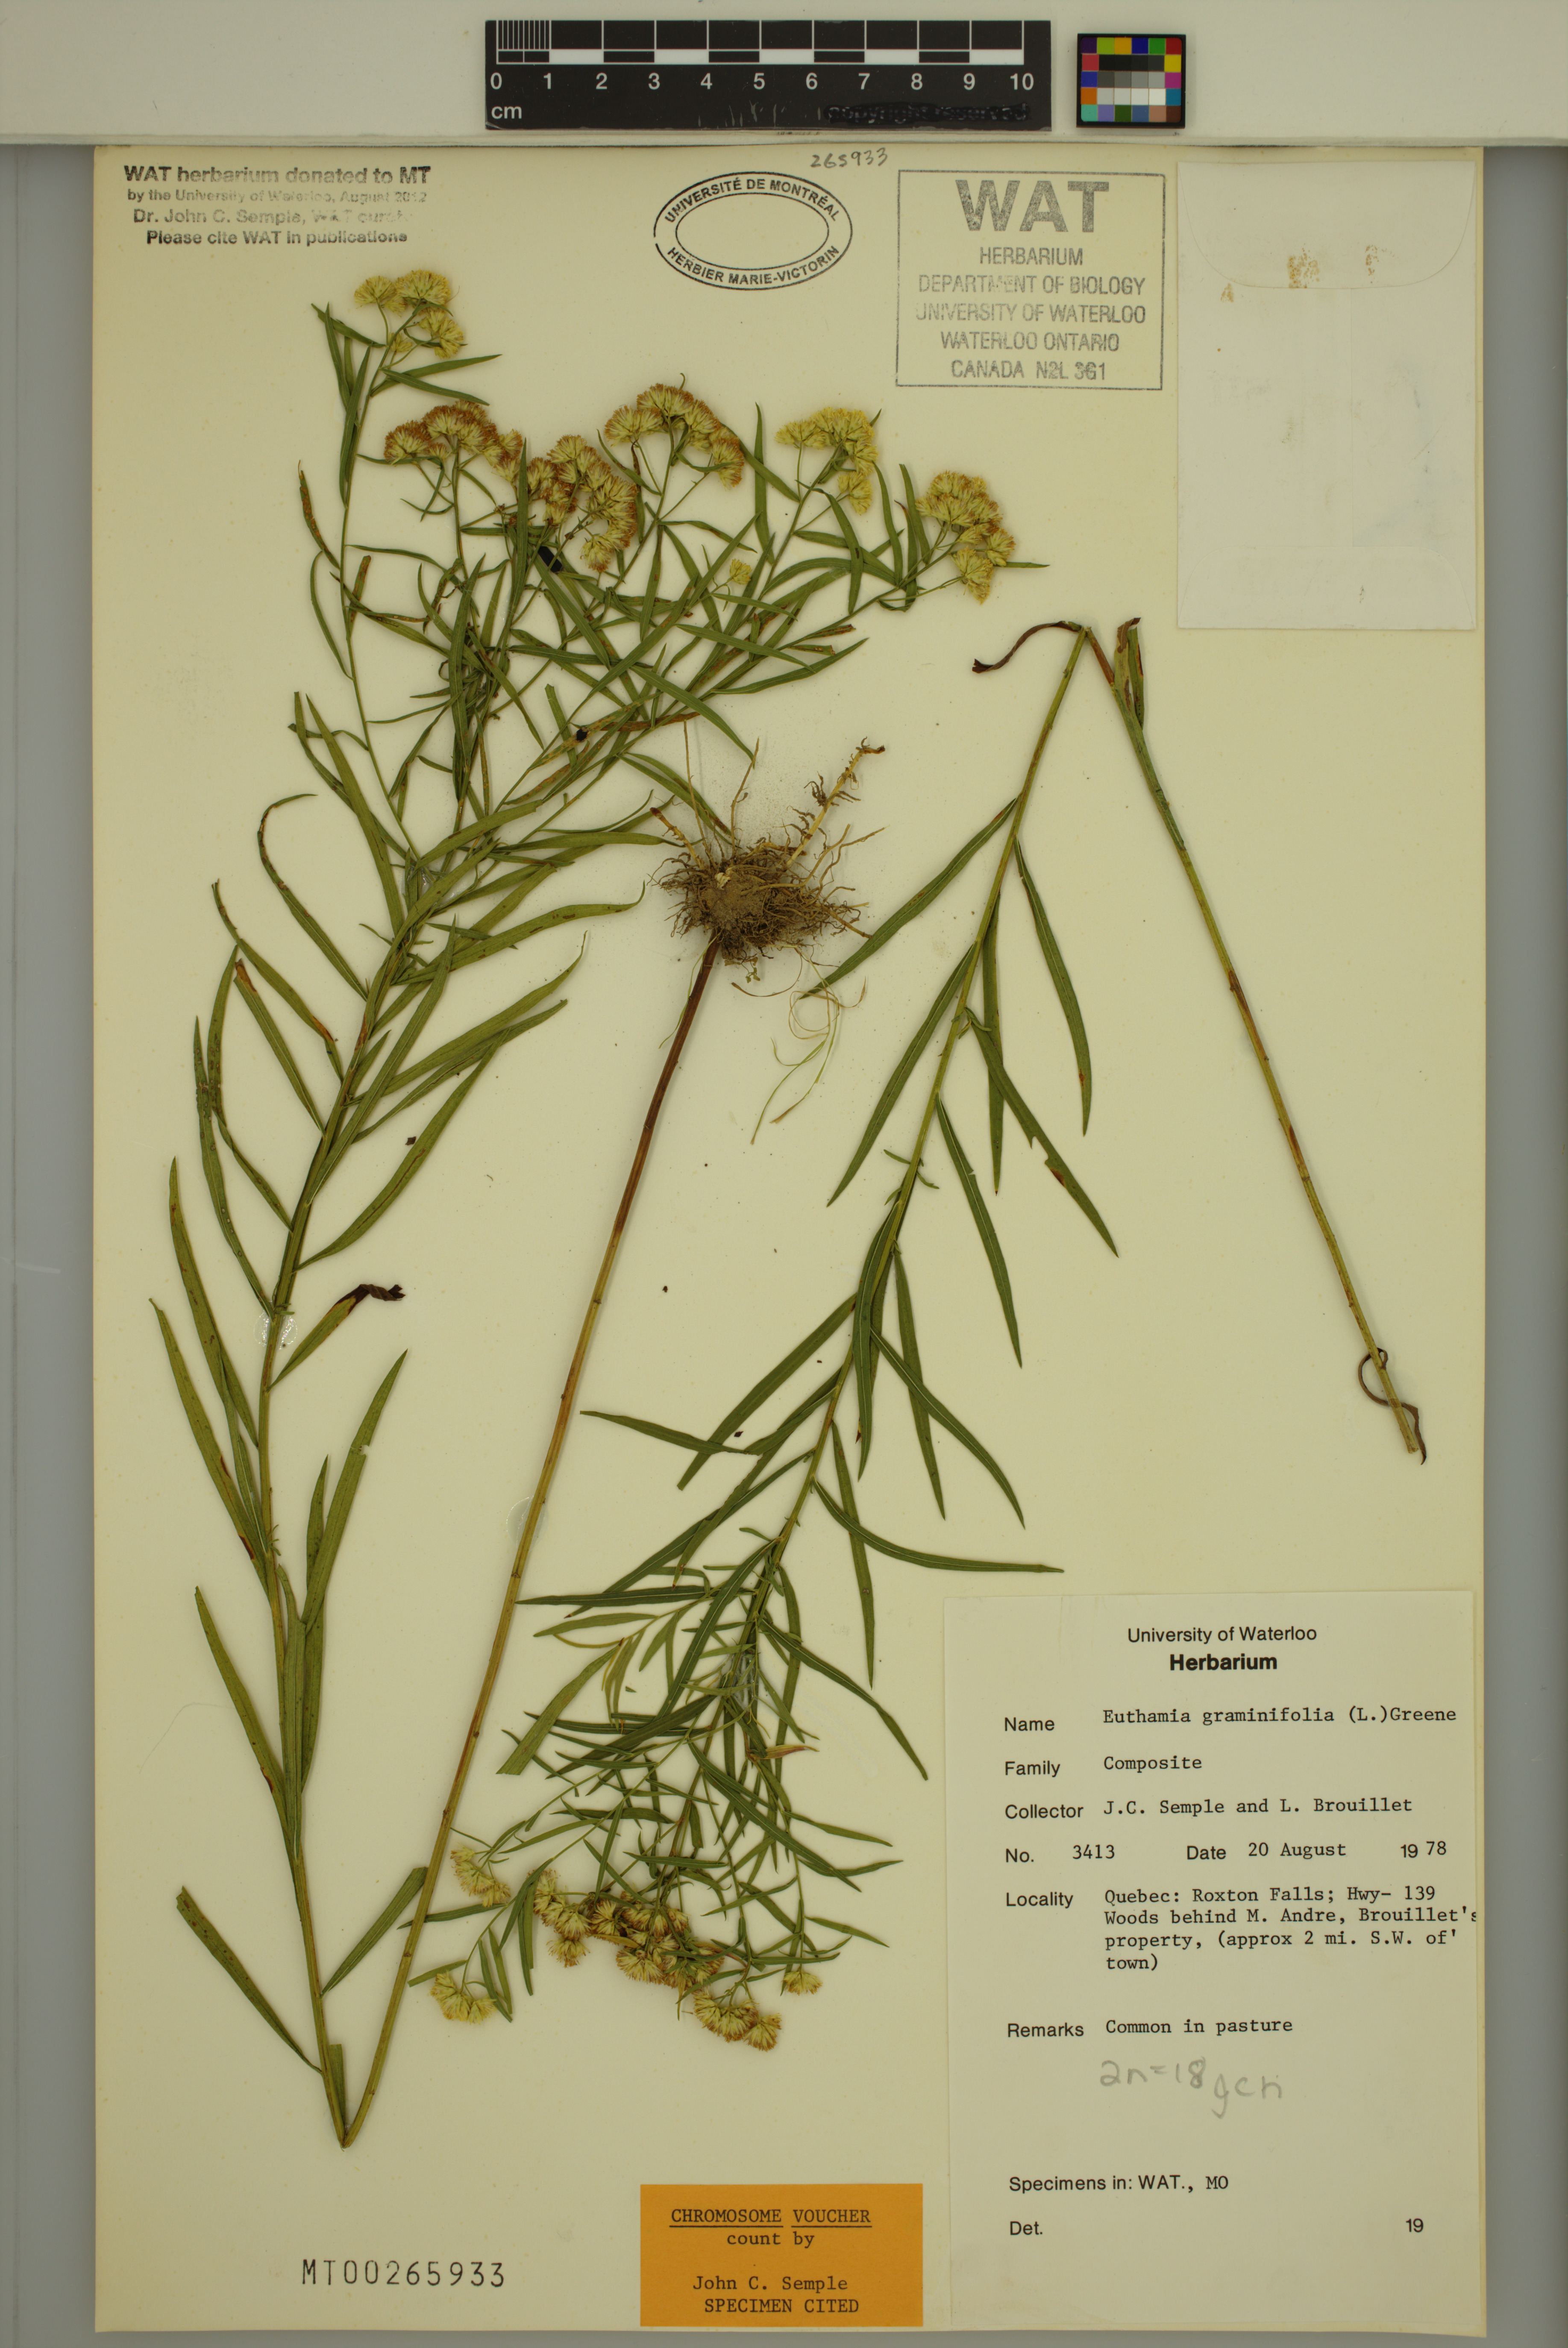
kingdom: Plantae
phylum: Tracheophyta
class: Magnoliopsida
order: Asterales
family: Asteraceae
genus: Euthamia
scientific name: Euthamia graminifolia
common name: Common goldentop
